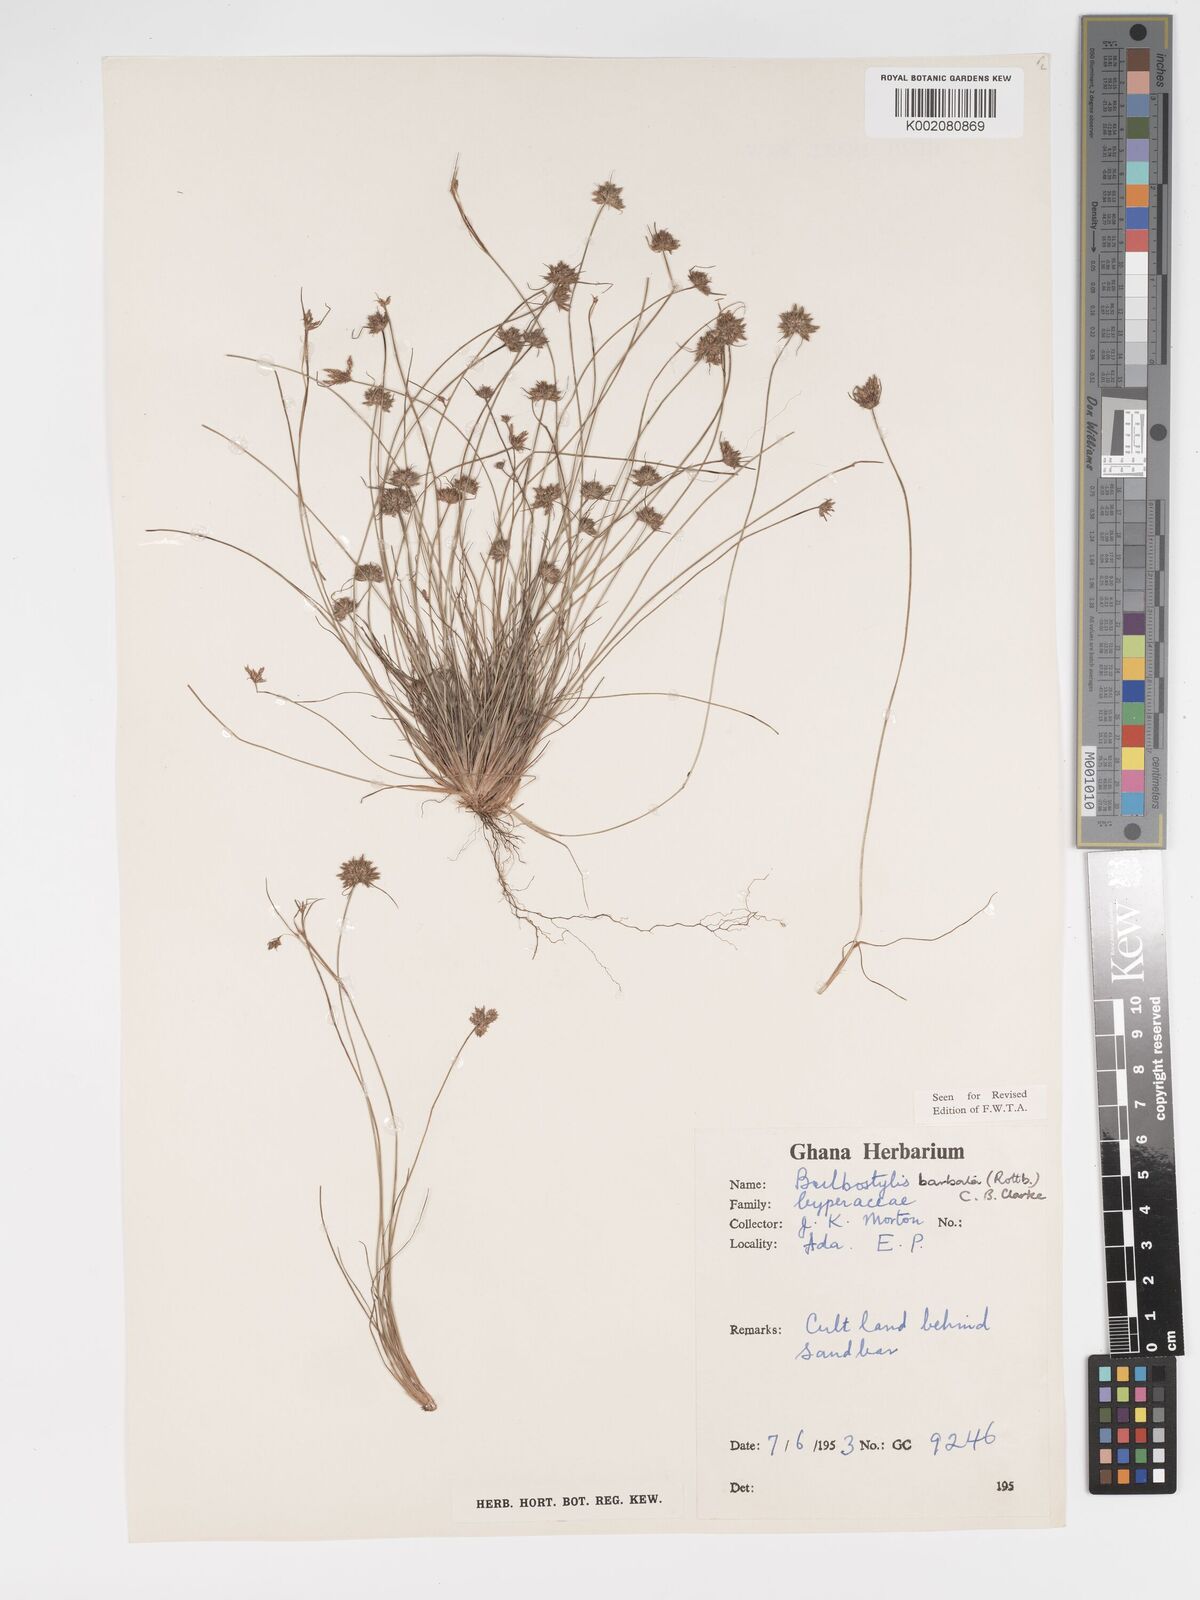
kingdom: Plantae
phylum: Tracheophyta
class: Liliopsida
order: Poales
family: Cyperaceae
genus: Bulbostylis
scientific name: Bulbostylis barbata
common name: Watergrass
